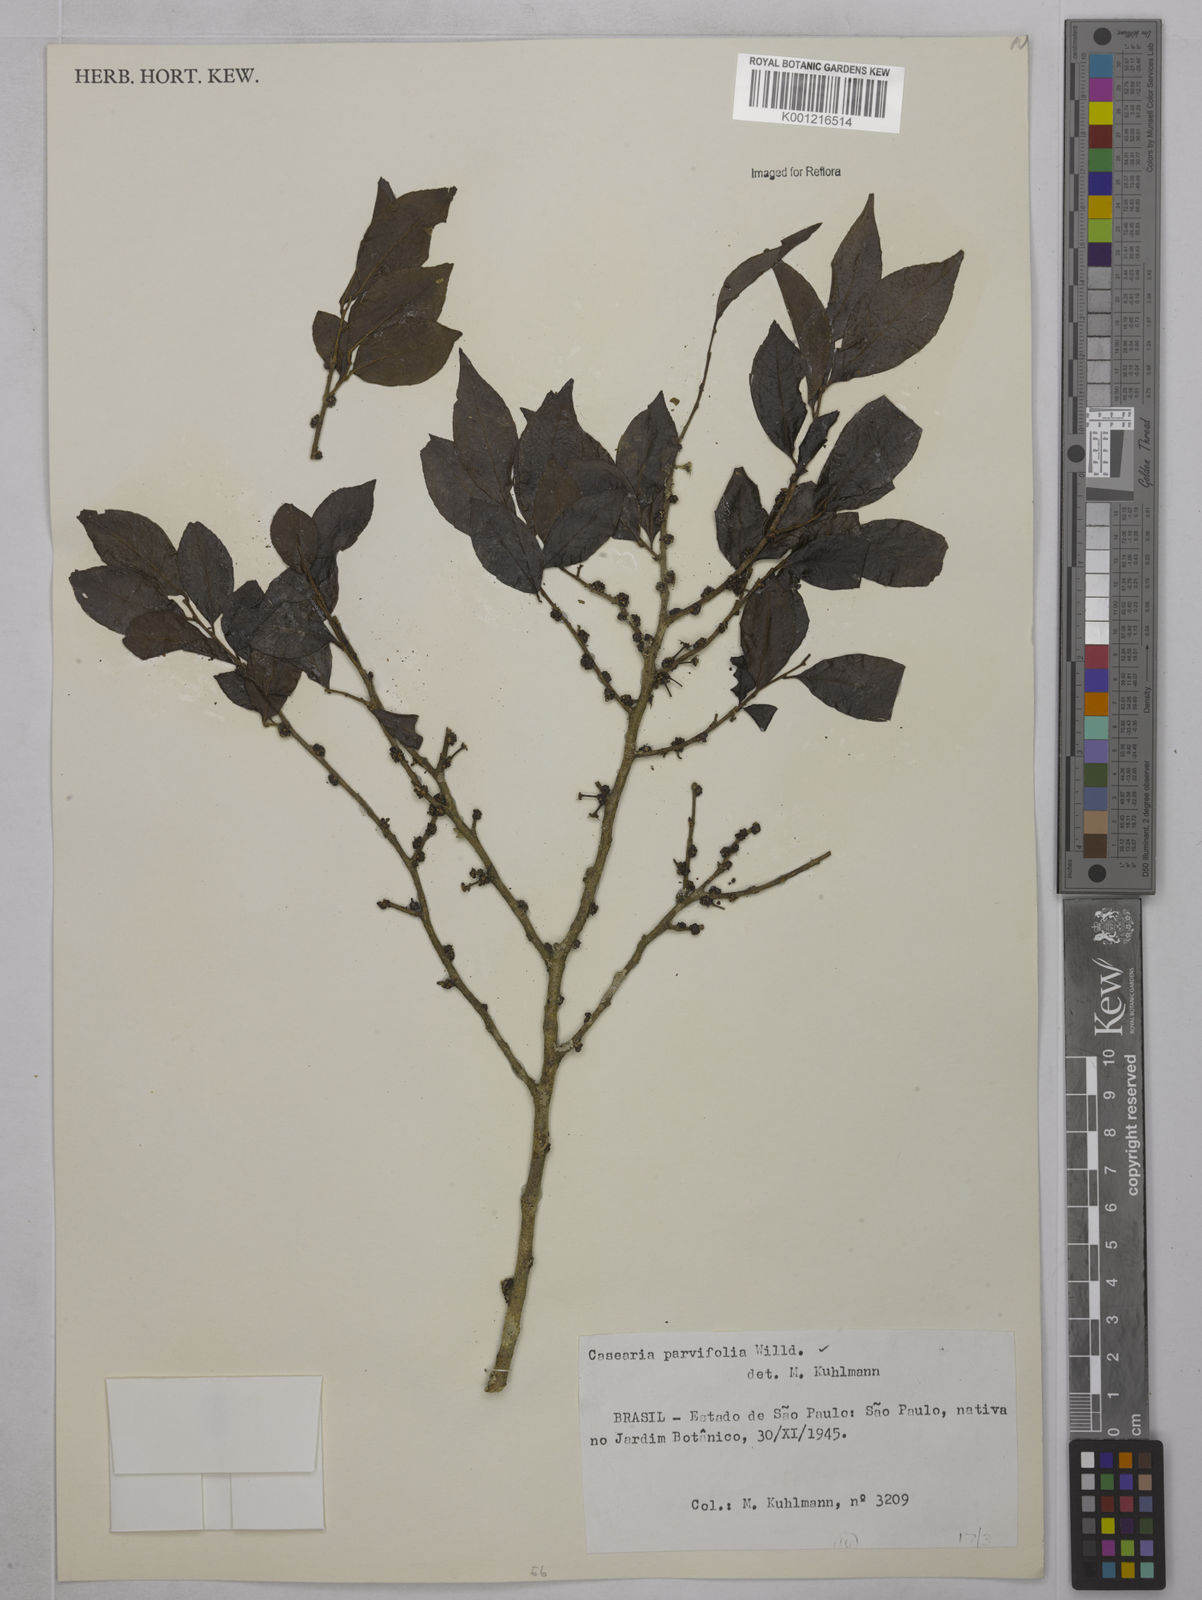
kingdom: Plantae
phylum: Tracheophyta
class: Magnoliopsida
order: Malpighiales
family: Salicaceae
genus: Casearia
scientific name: Casearia decandra
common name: Crack open
